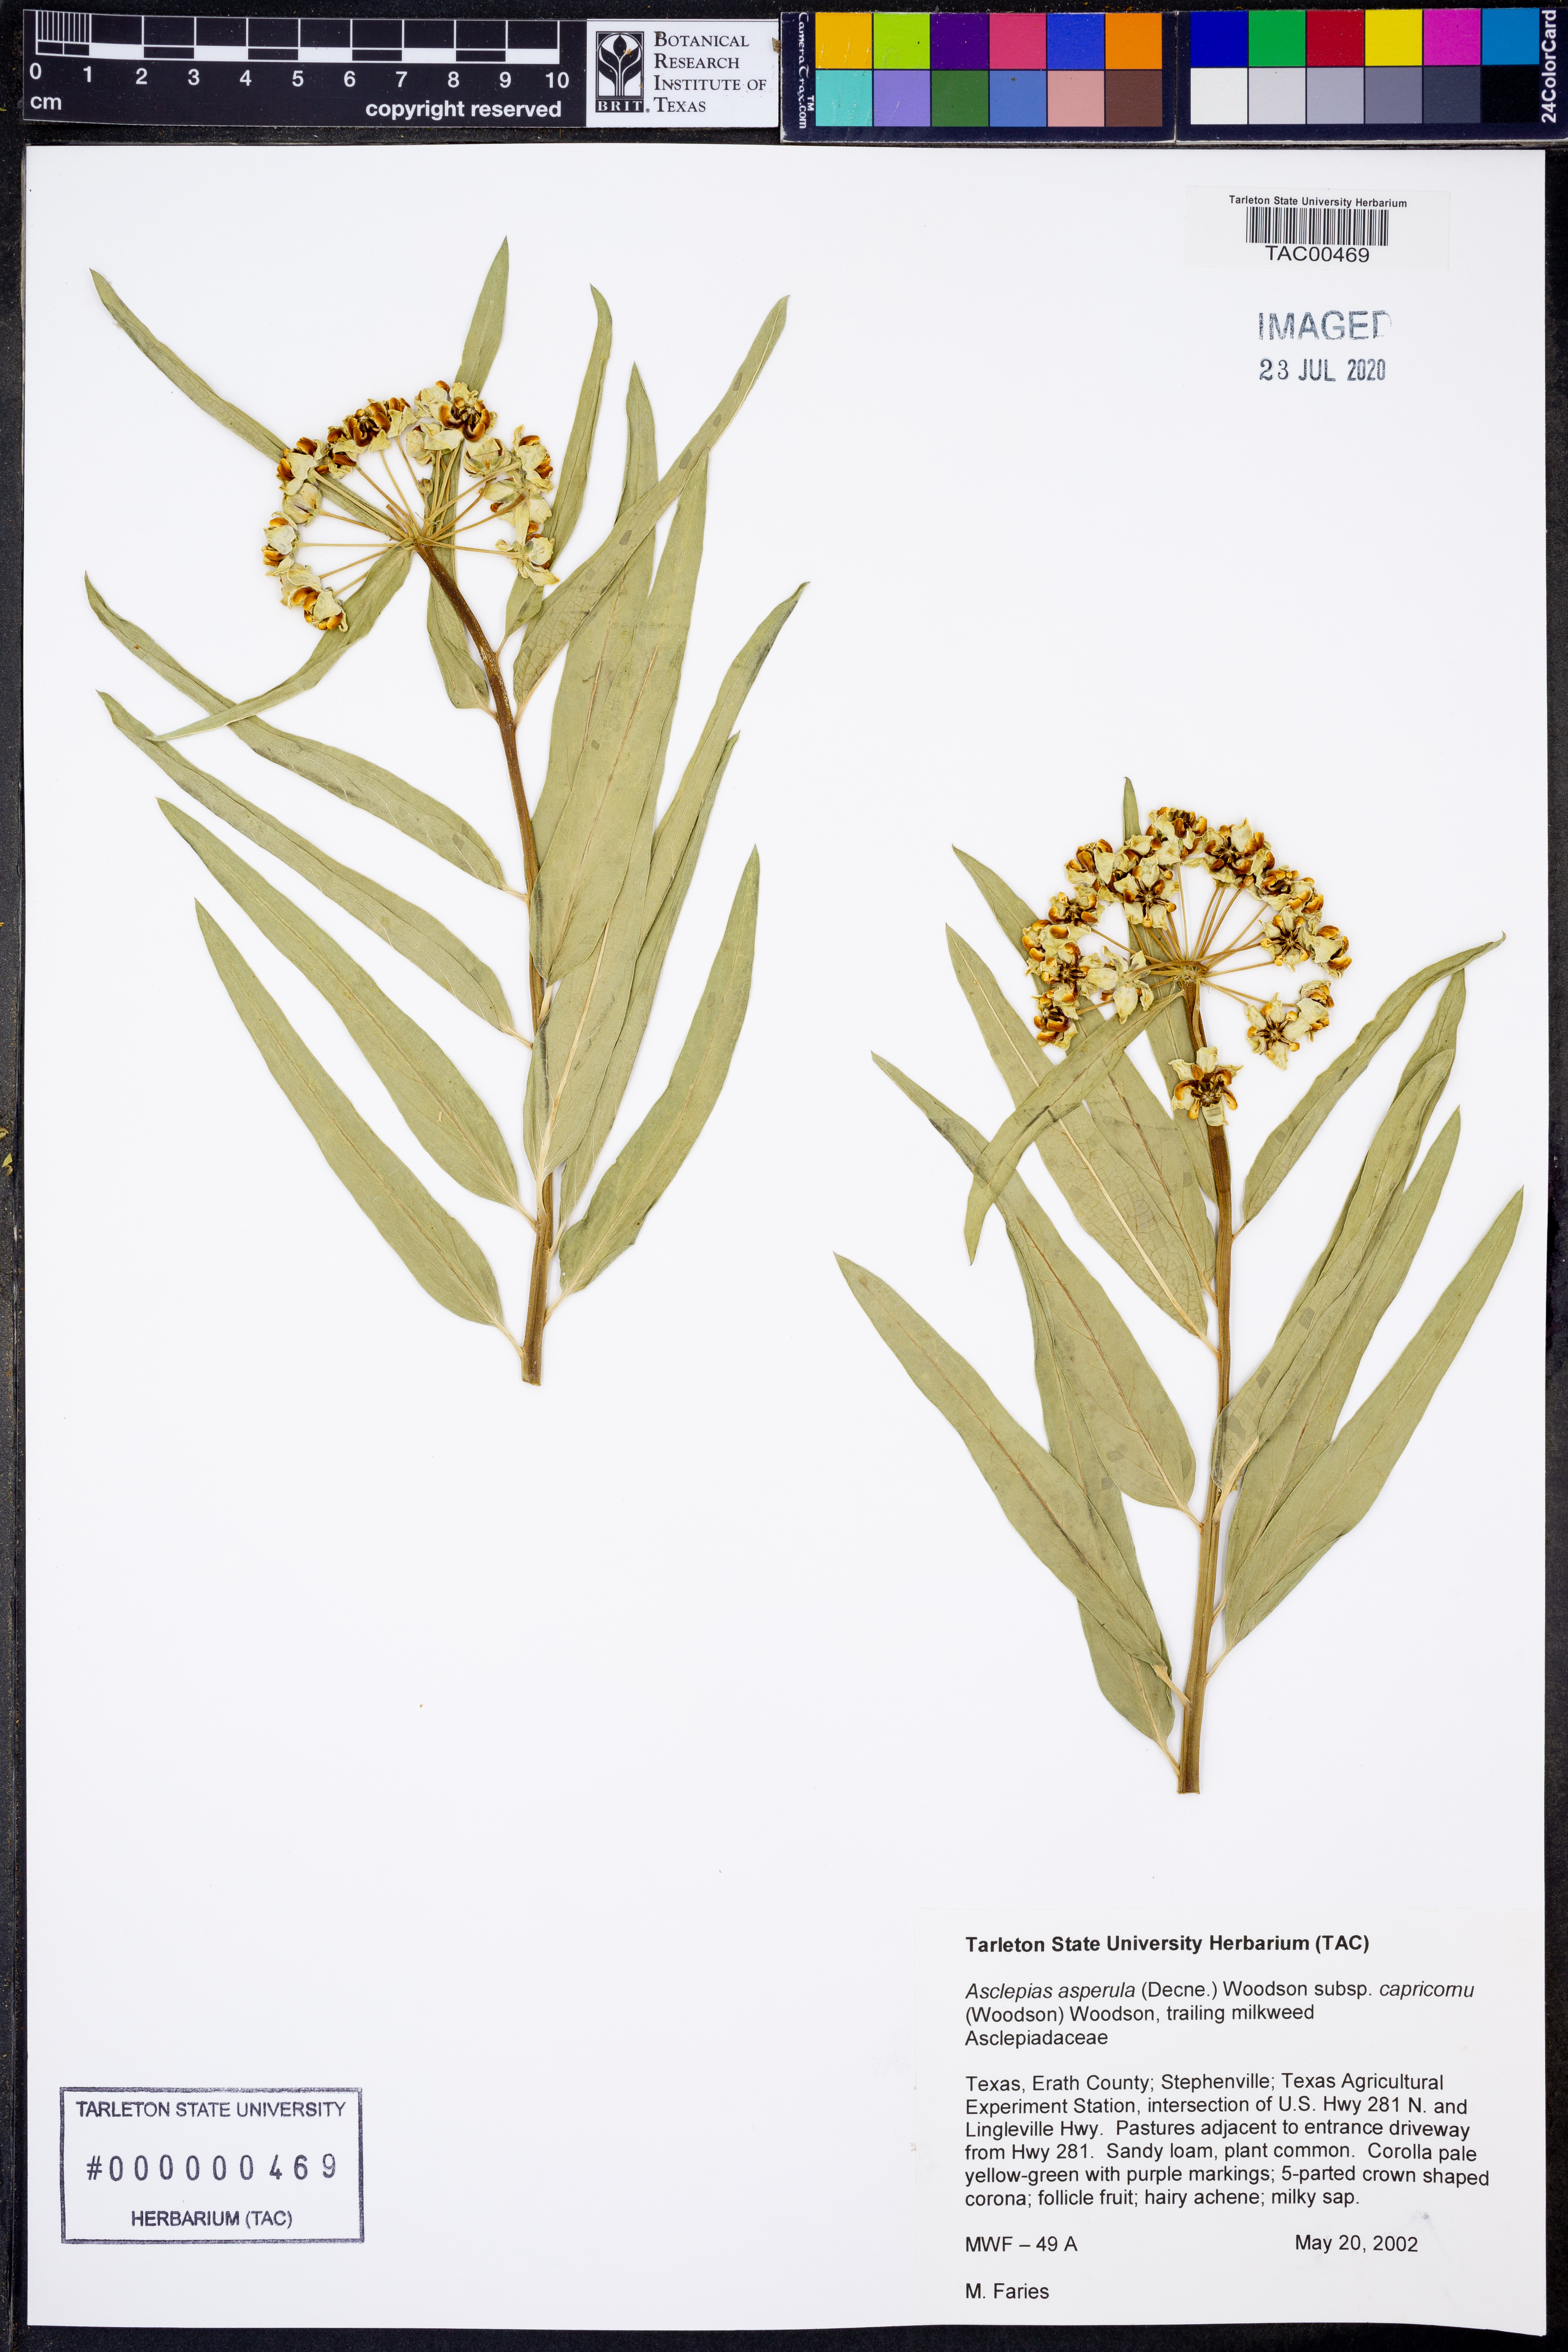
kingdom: Plantae
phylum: Tracheophyta
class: Magnoliopsida
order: Gentianales
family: Apocynaceae
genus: Asclepias
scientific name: Asclepias asperula
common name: Antelope horns
